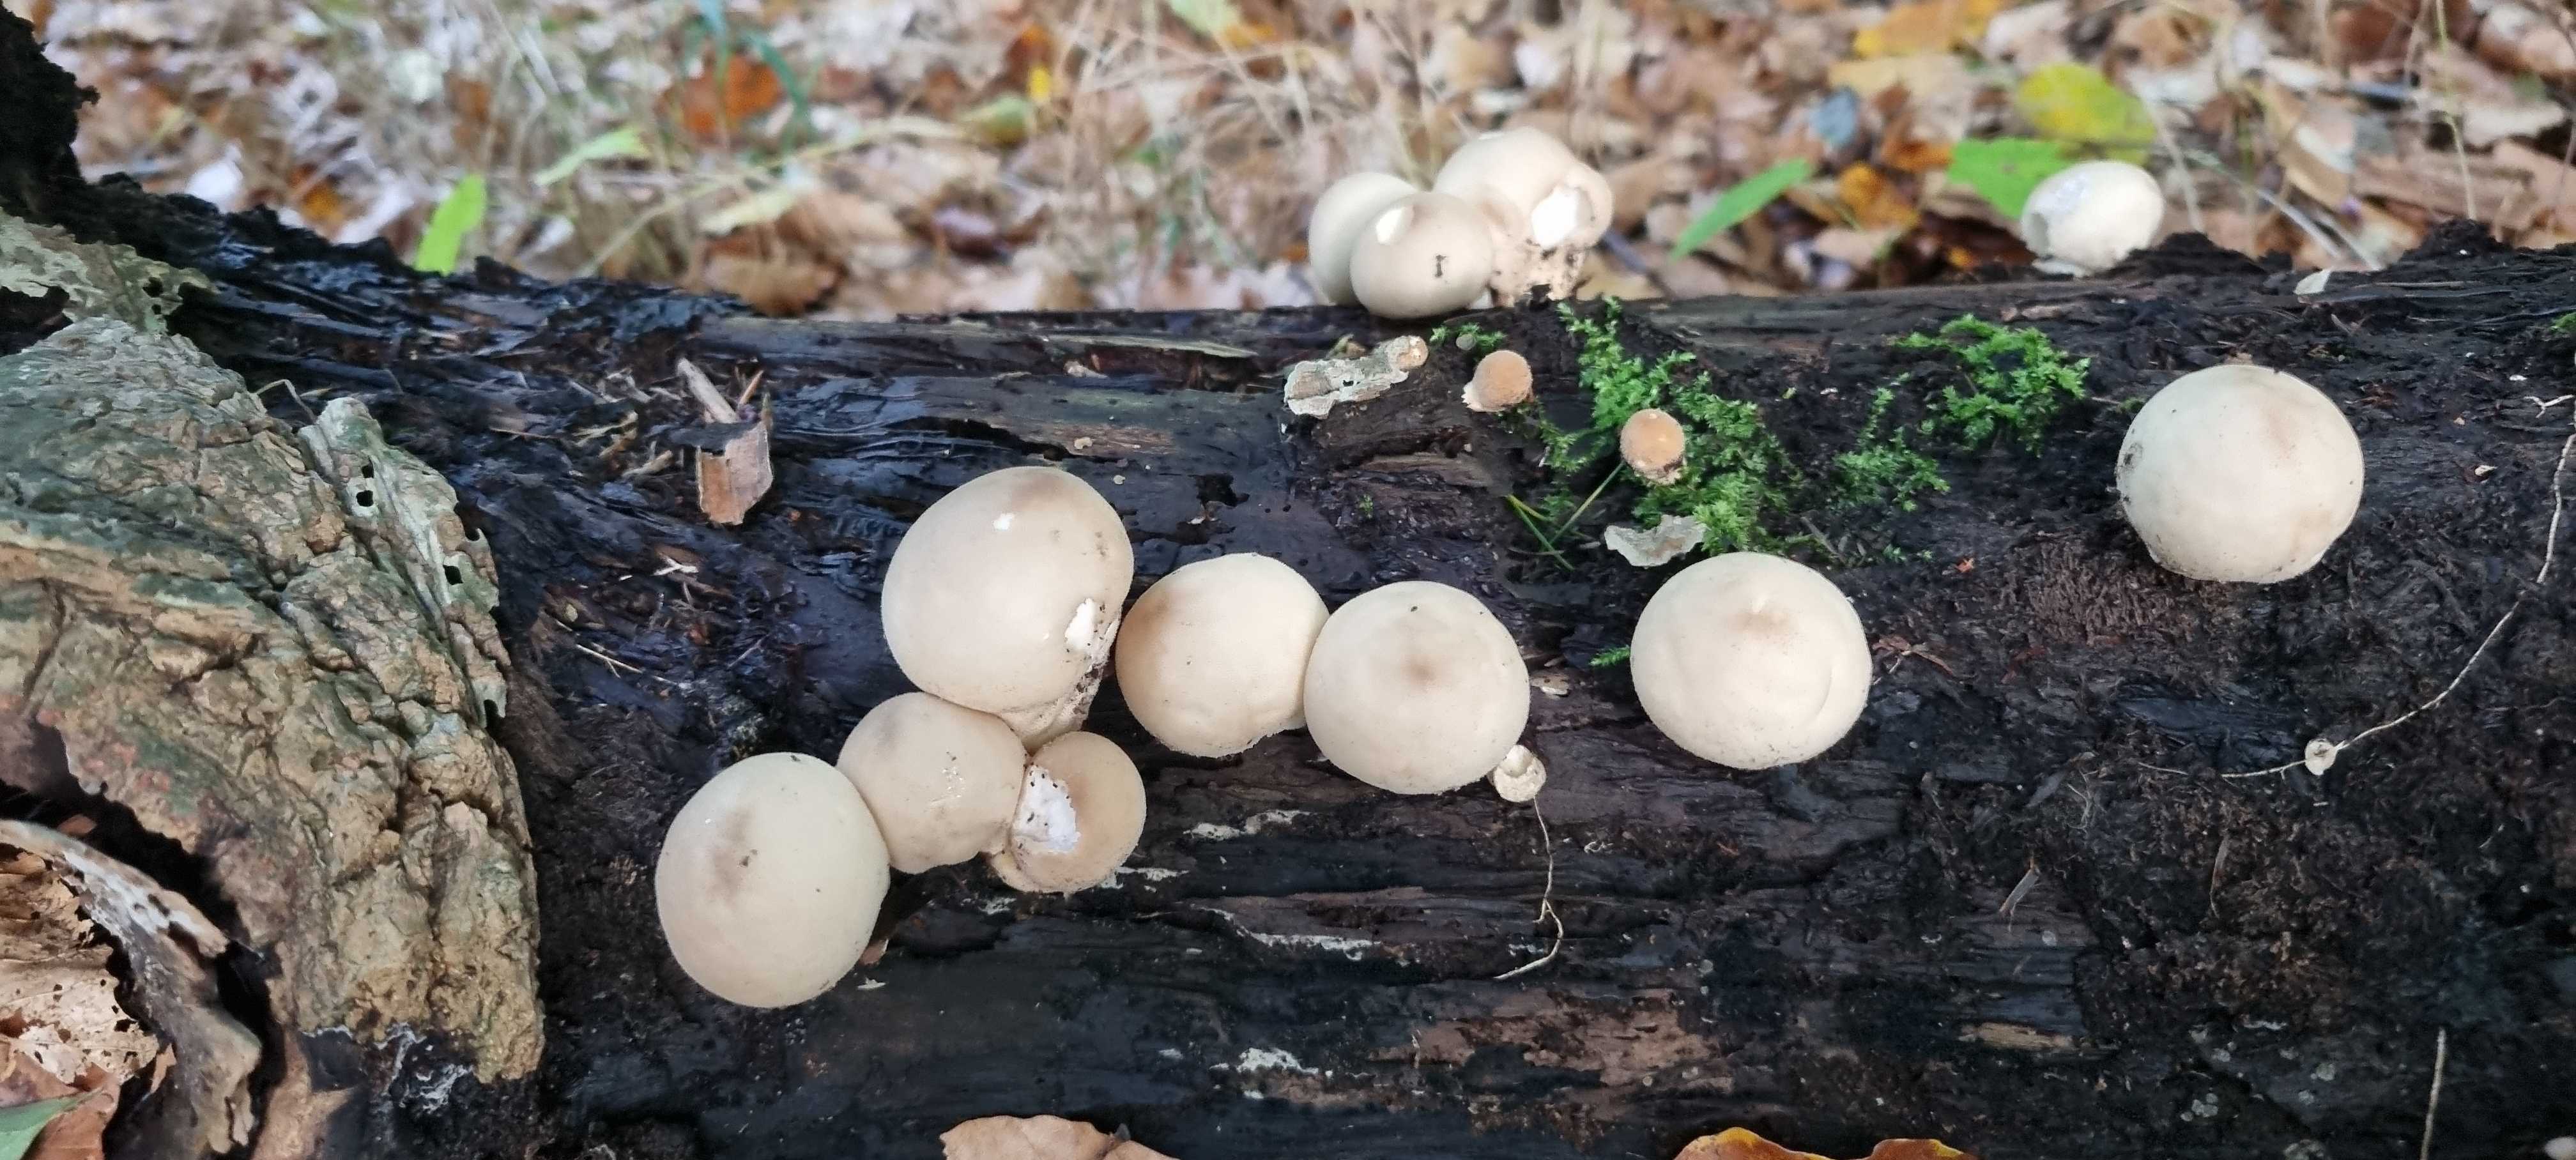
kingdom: Fungi
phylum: Basidiomycota
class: Agaricomycetes
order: Agaricales
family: Lycoperdaceae
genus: Apioperdon
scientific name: Apioperdon pyriforme
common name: pære-støvbold
